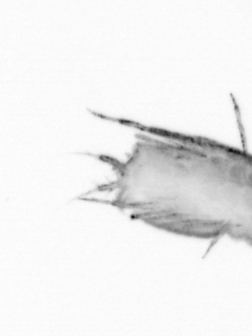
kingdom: Animalia
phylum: Annelida
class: Polychaeta
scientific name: Polychaeta
